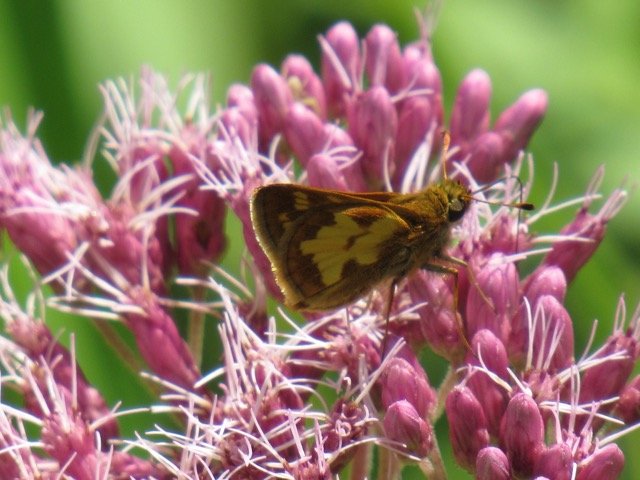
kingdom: Animalia
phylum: Arthropoda
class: Insecta
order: Lepidoptera
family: Hesperiidae
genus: Polites
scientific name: Polites coras
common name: Peck's Skipper
